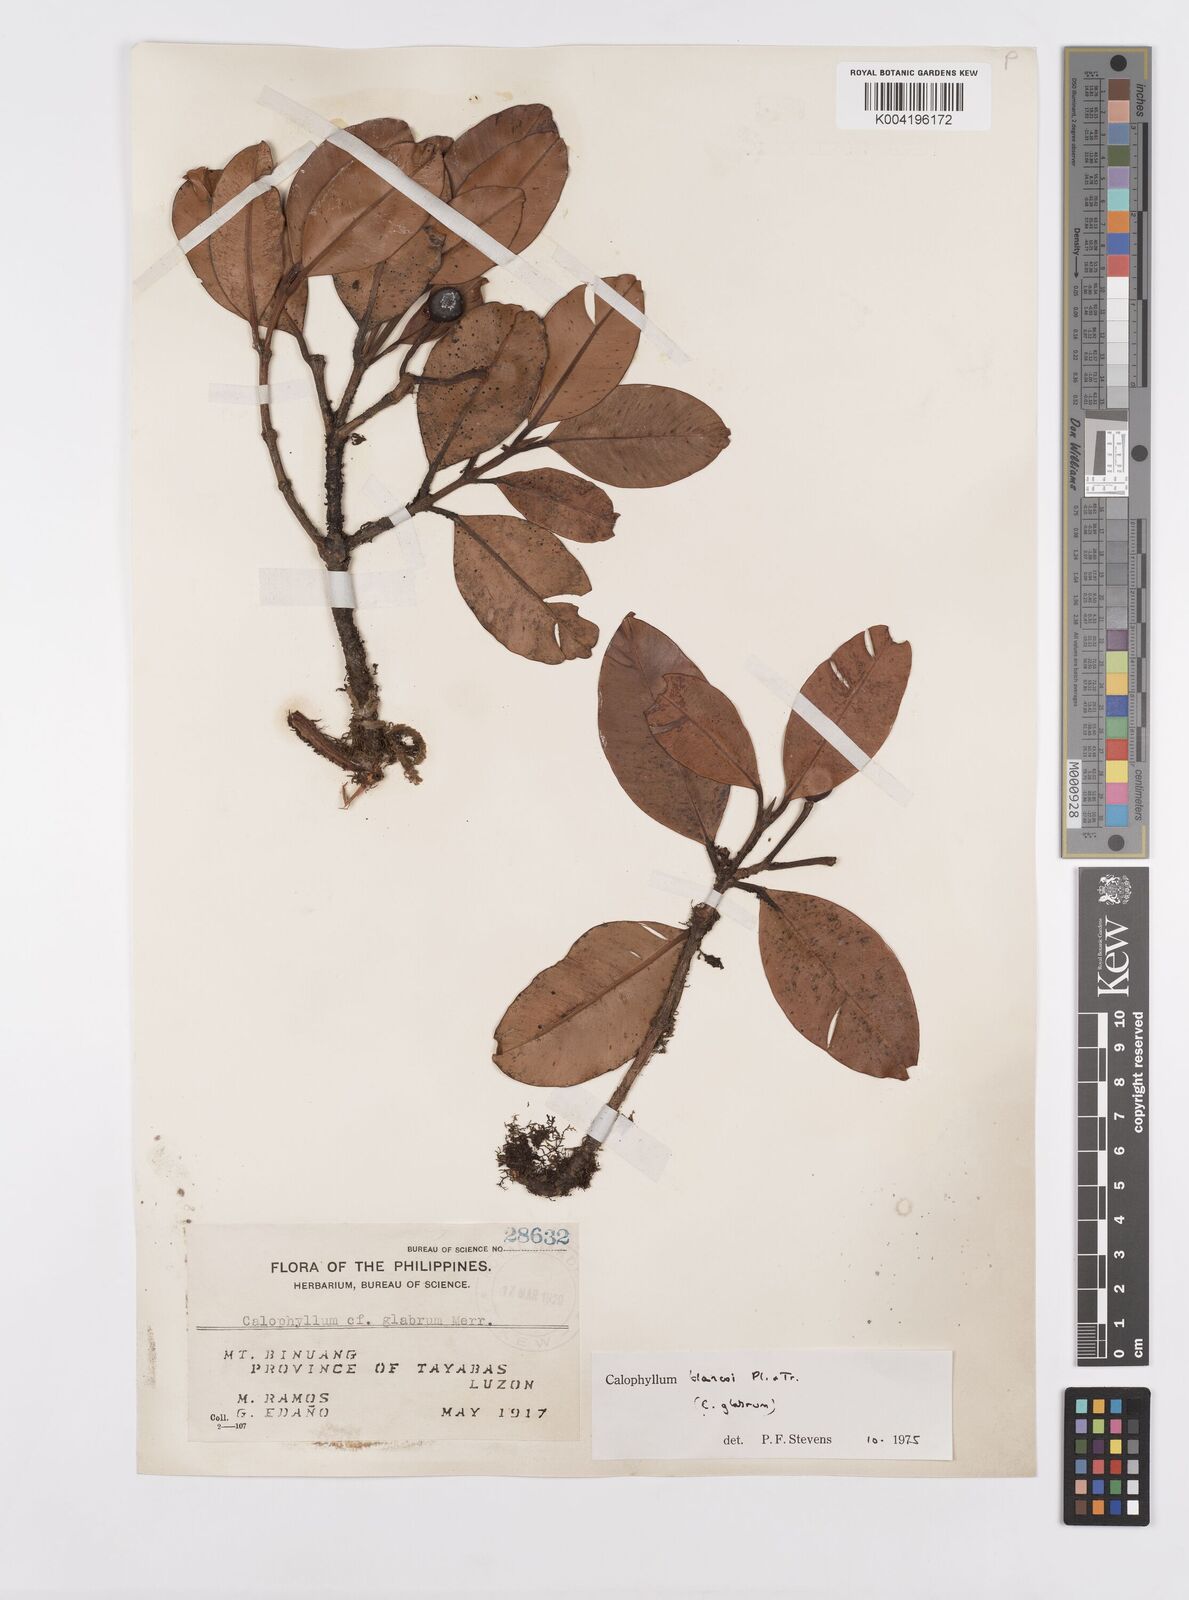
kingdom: Plantae
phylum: Tracheophyta
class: Magnoliopsida
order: Malpighiales
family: Calophyllaceae
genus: Calophyllum
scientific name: Calophyllum blancoi
